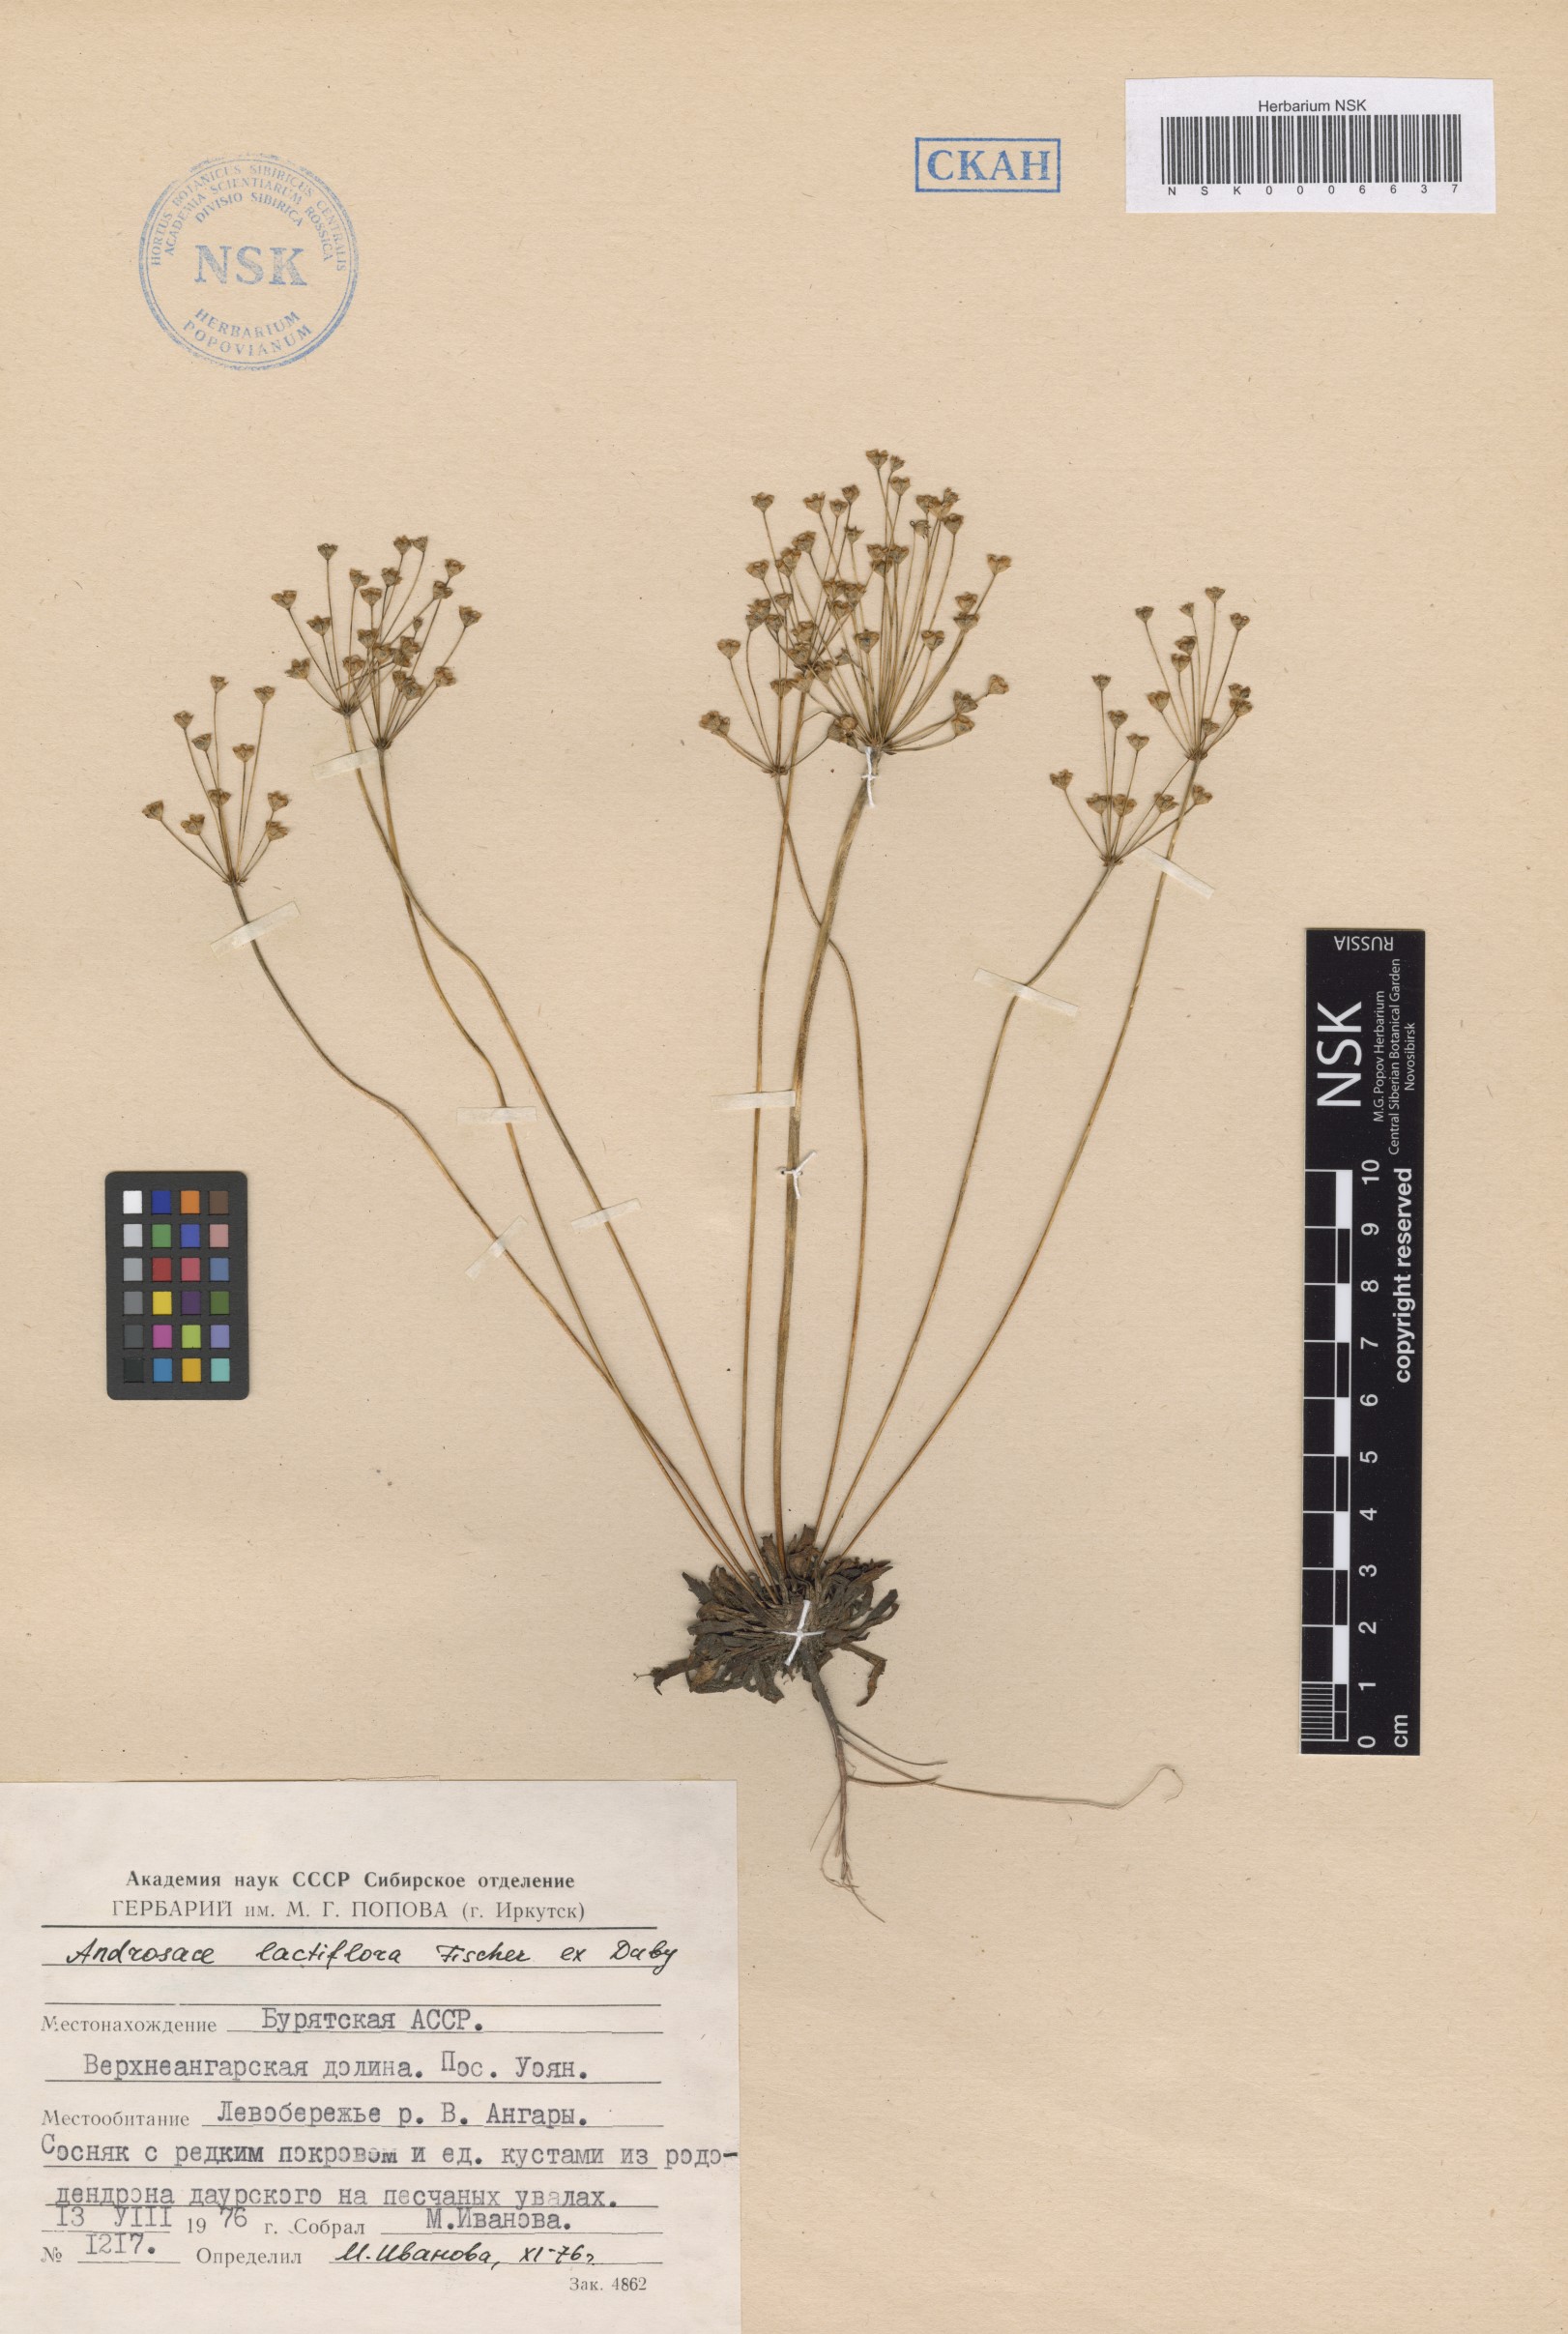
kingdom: Plantae
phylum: Tracheophyta
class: Magnoliopsida
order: Ericales
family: Primulaceae
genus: Androsace
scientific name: Androsace lactiflora
